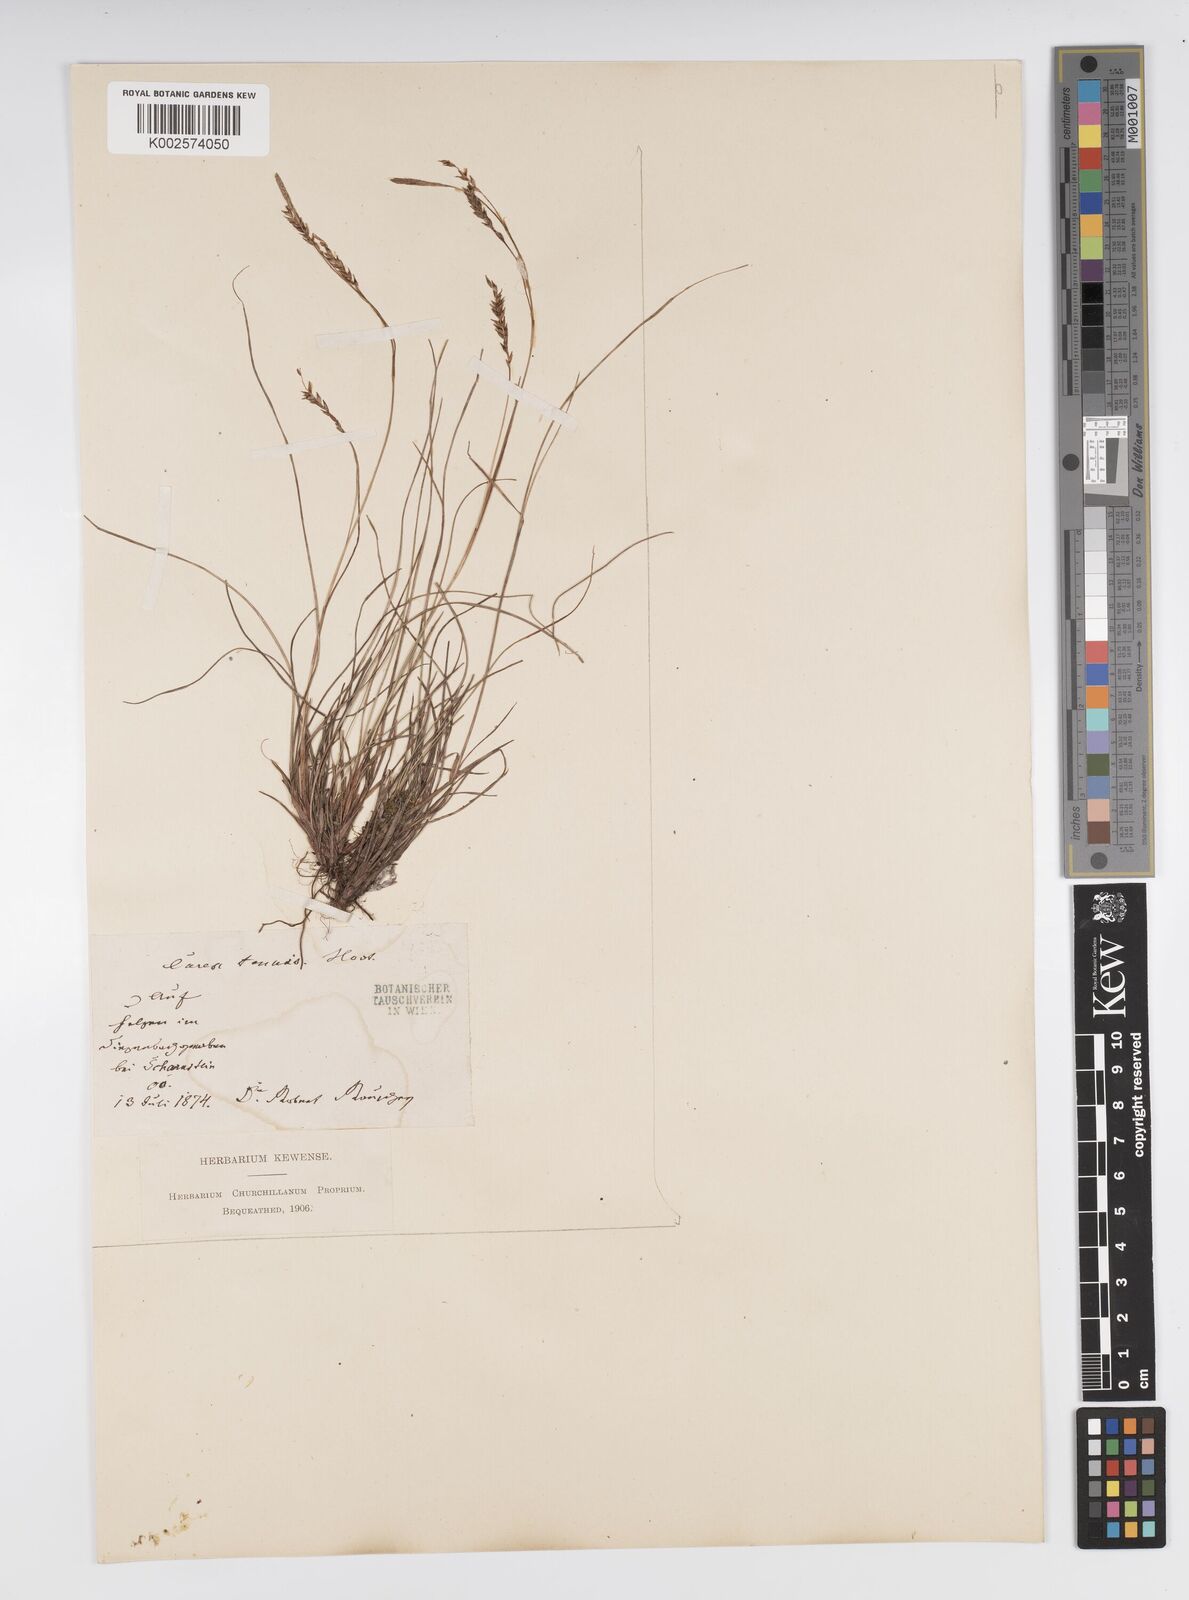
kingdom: Plantae
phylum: Tracheophyta
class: Liliopsida
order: Poales
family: Cyperaceae
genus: Carex
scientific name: Carex brachystachys
